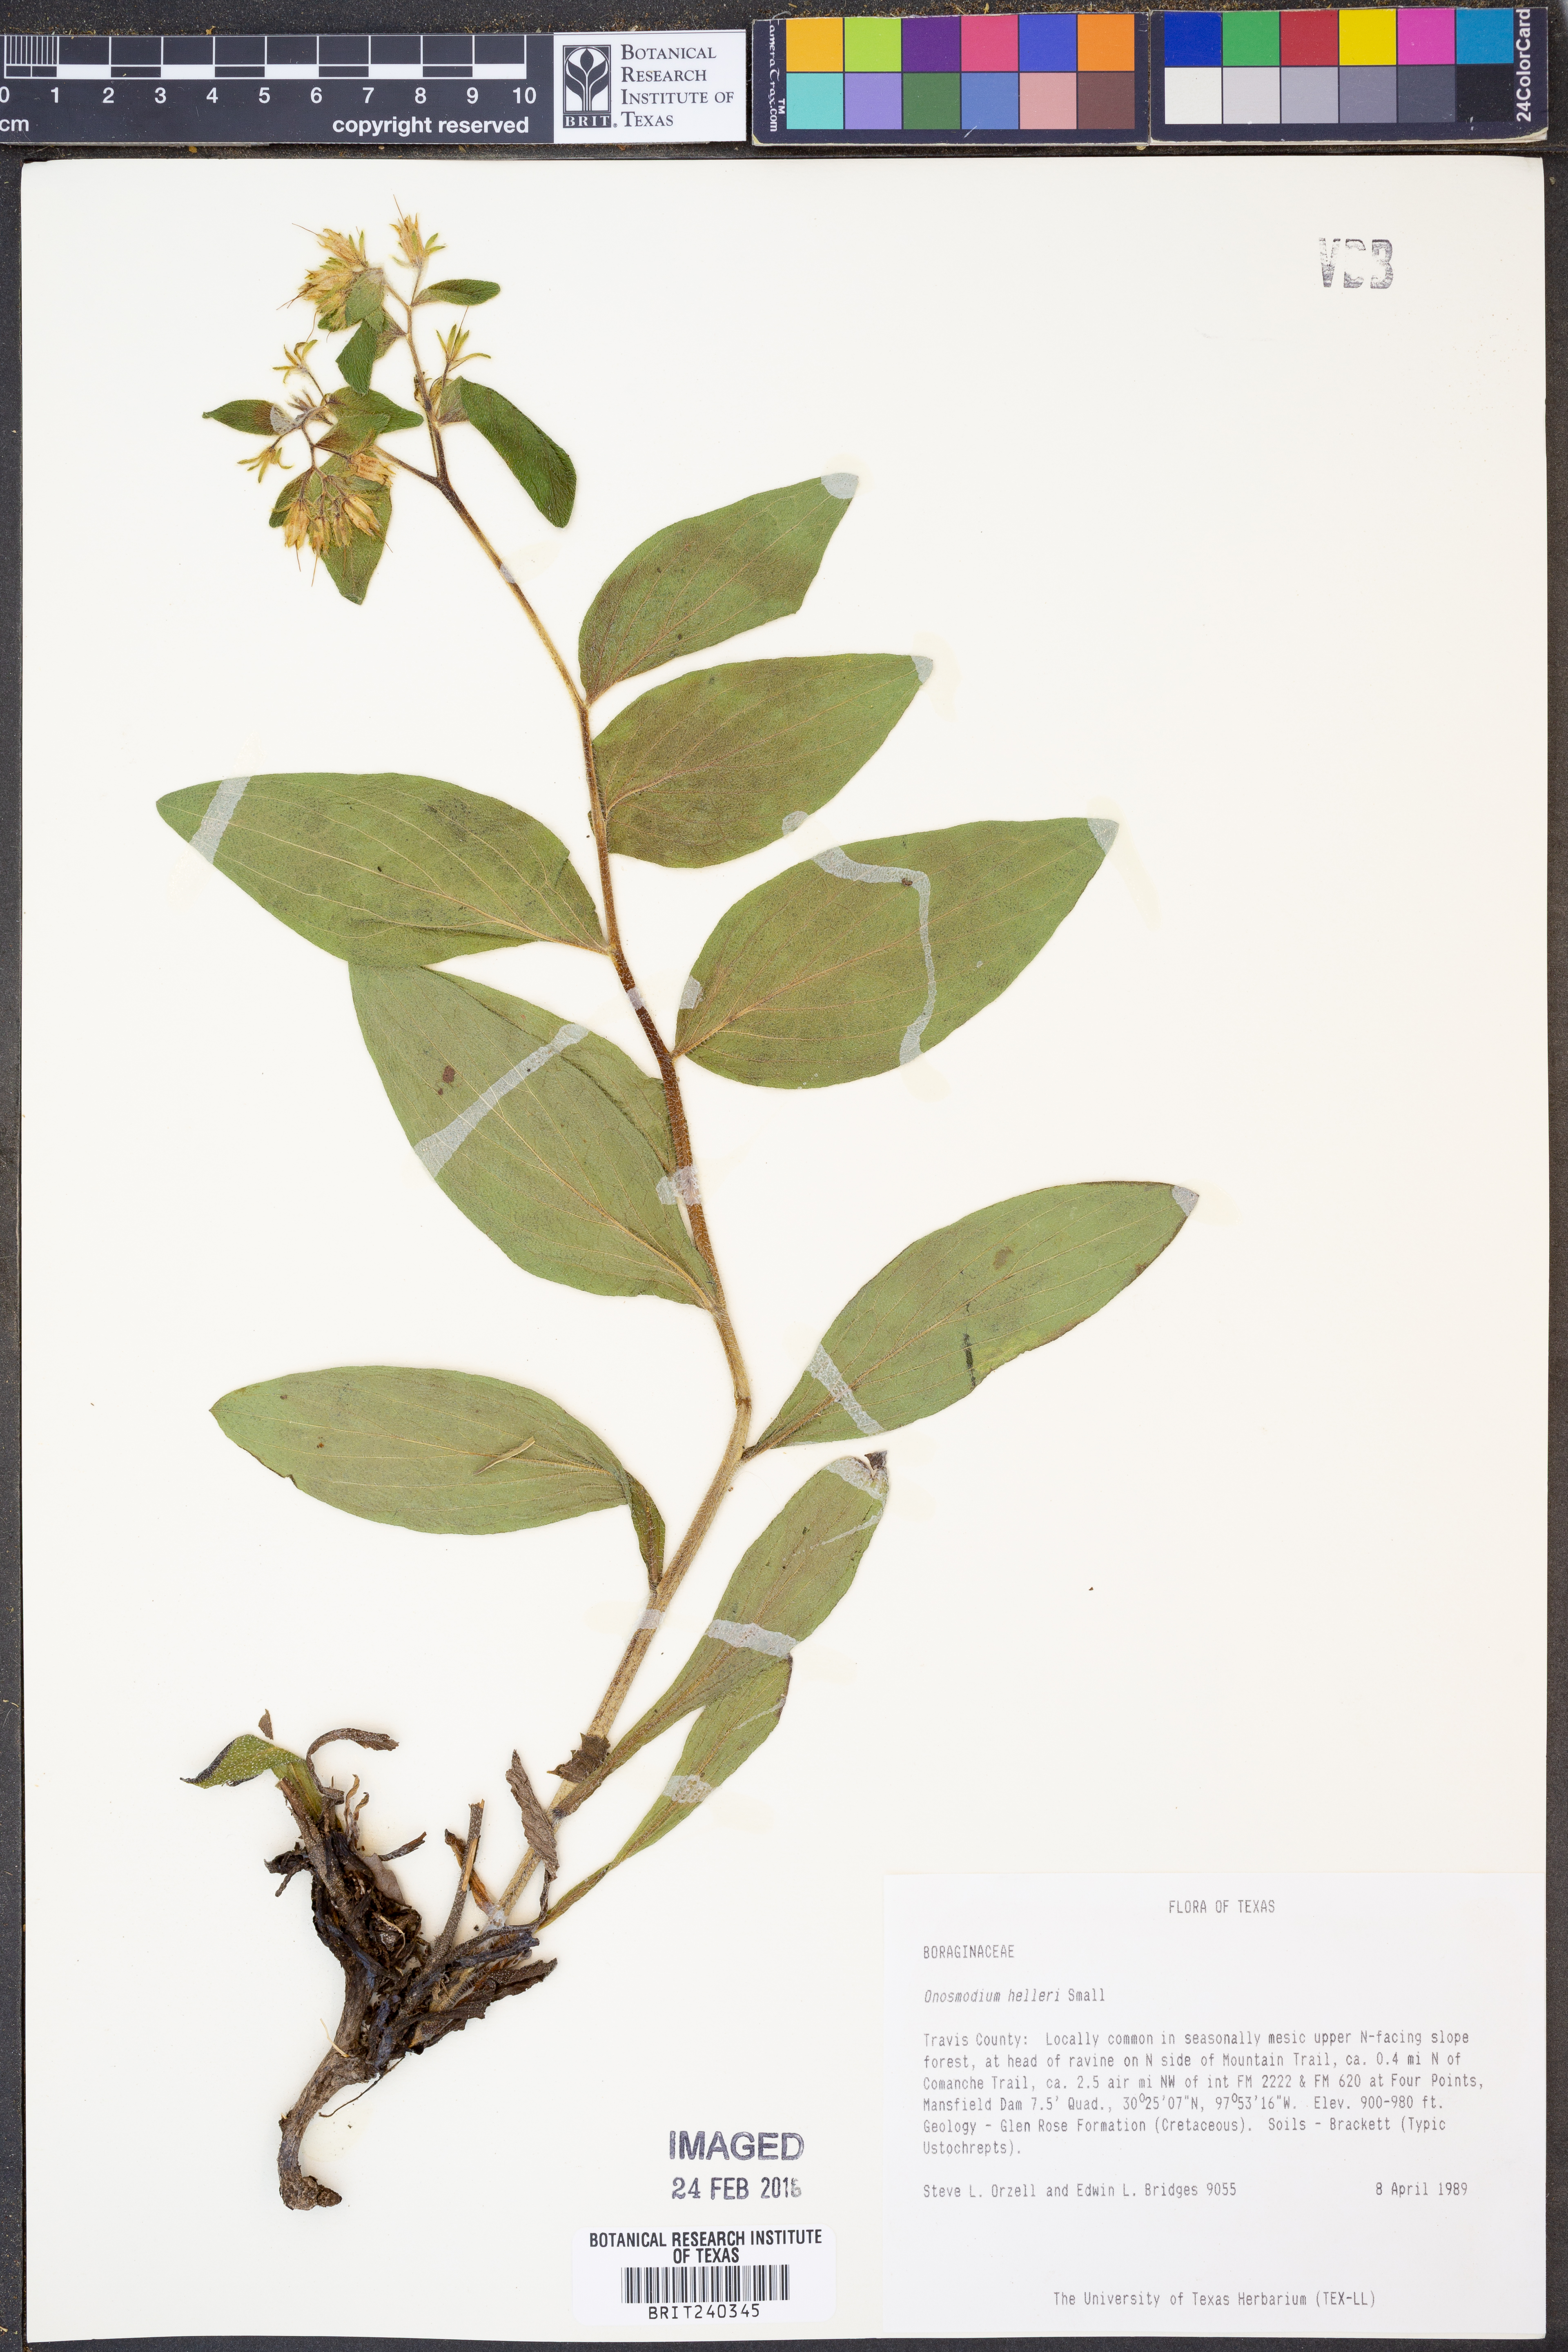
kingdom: Plantae
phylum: Tracheophyta
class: Magnoliopsida
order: Boraginales
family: Boraginaceae
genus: Lithospermum
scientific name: Lithospermum helleri
